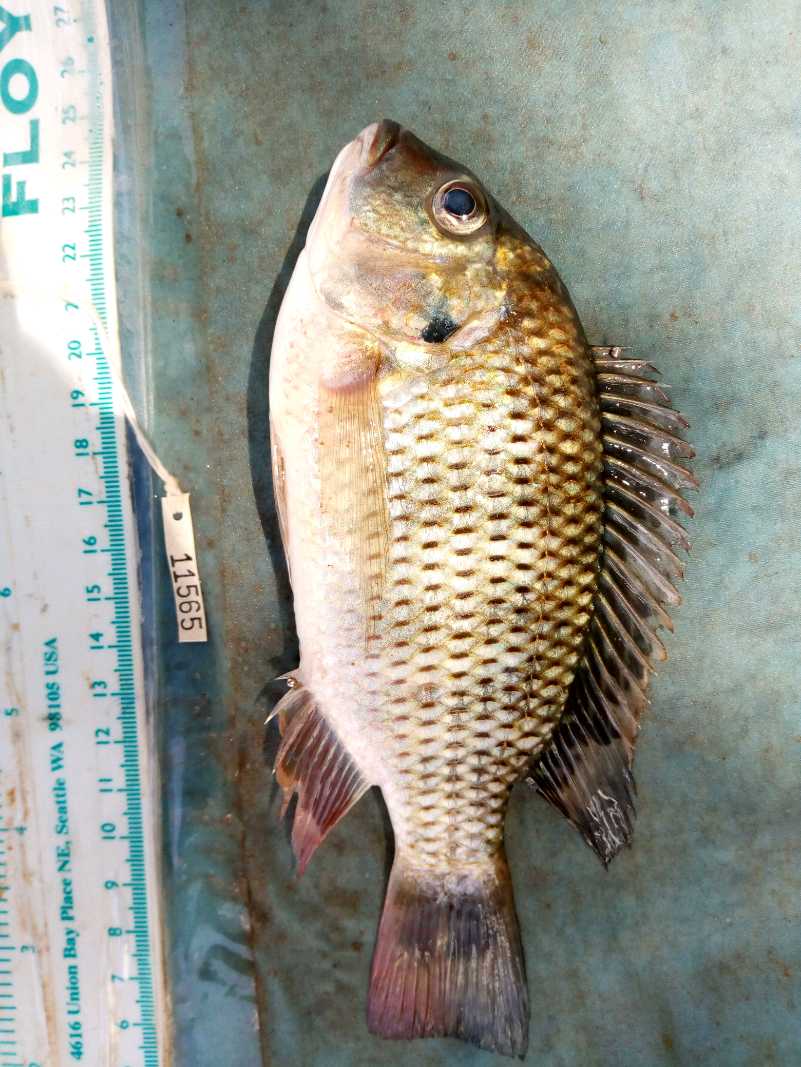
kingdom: Animalia
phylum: Chordata
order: Perciformes
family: Cichlidae
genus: Coptodon
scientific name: Coptodon rendalli
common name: Redbreast tilapia
